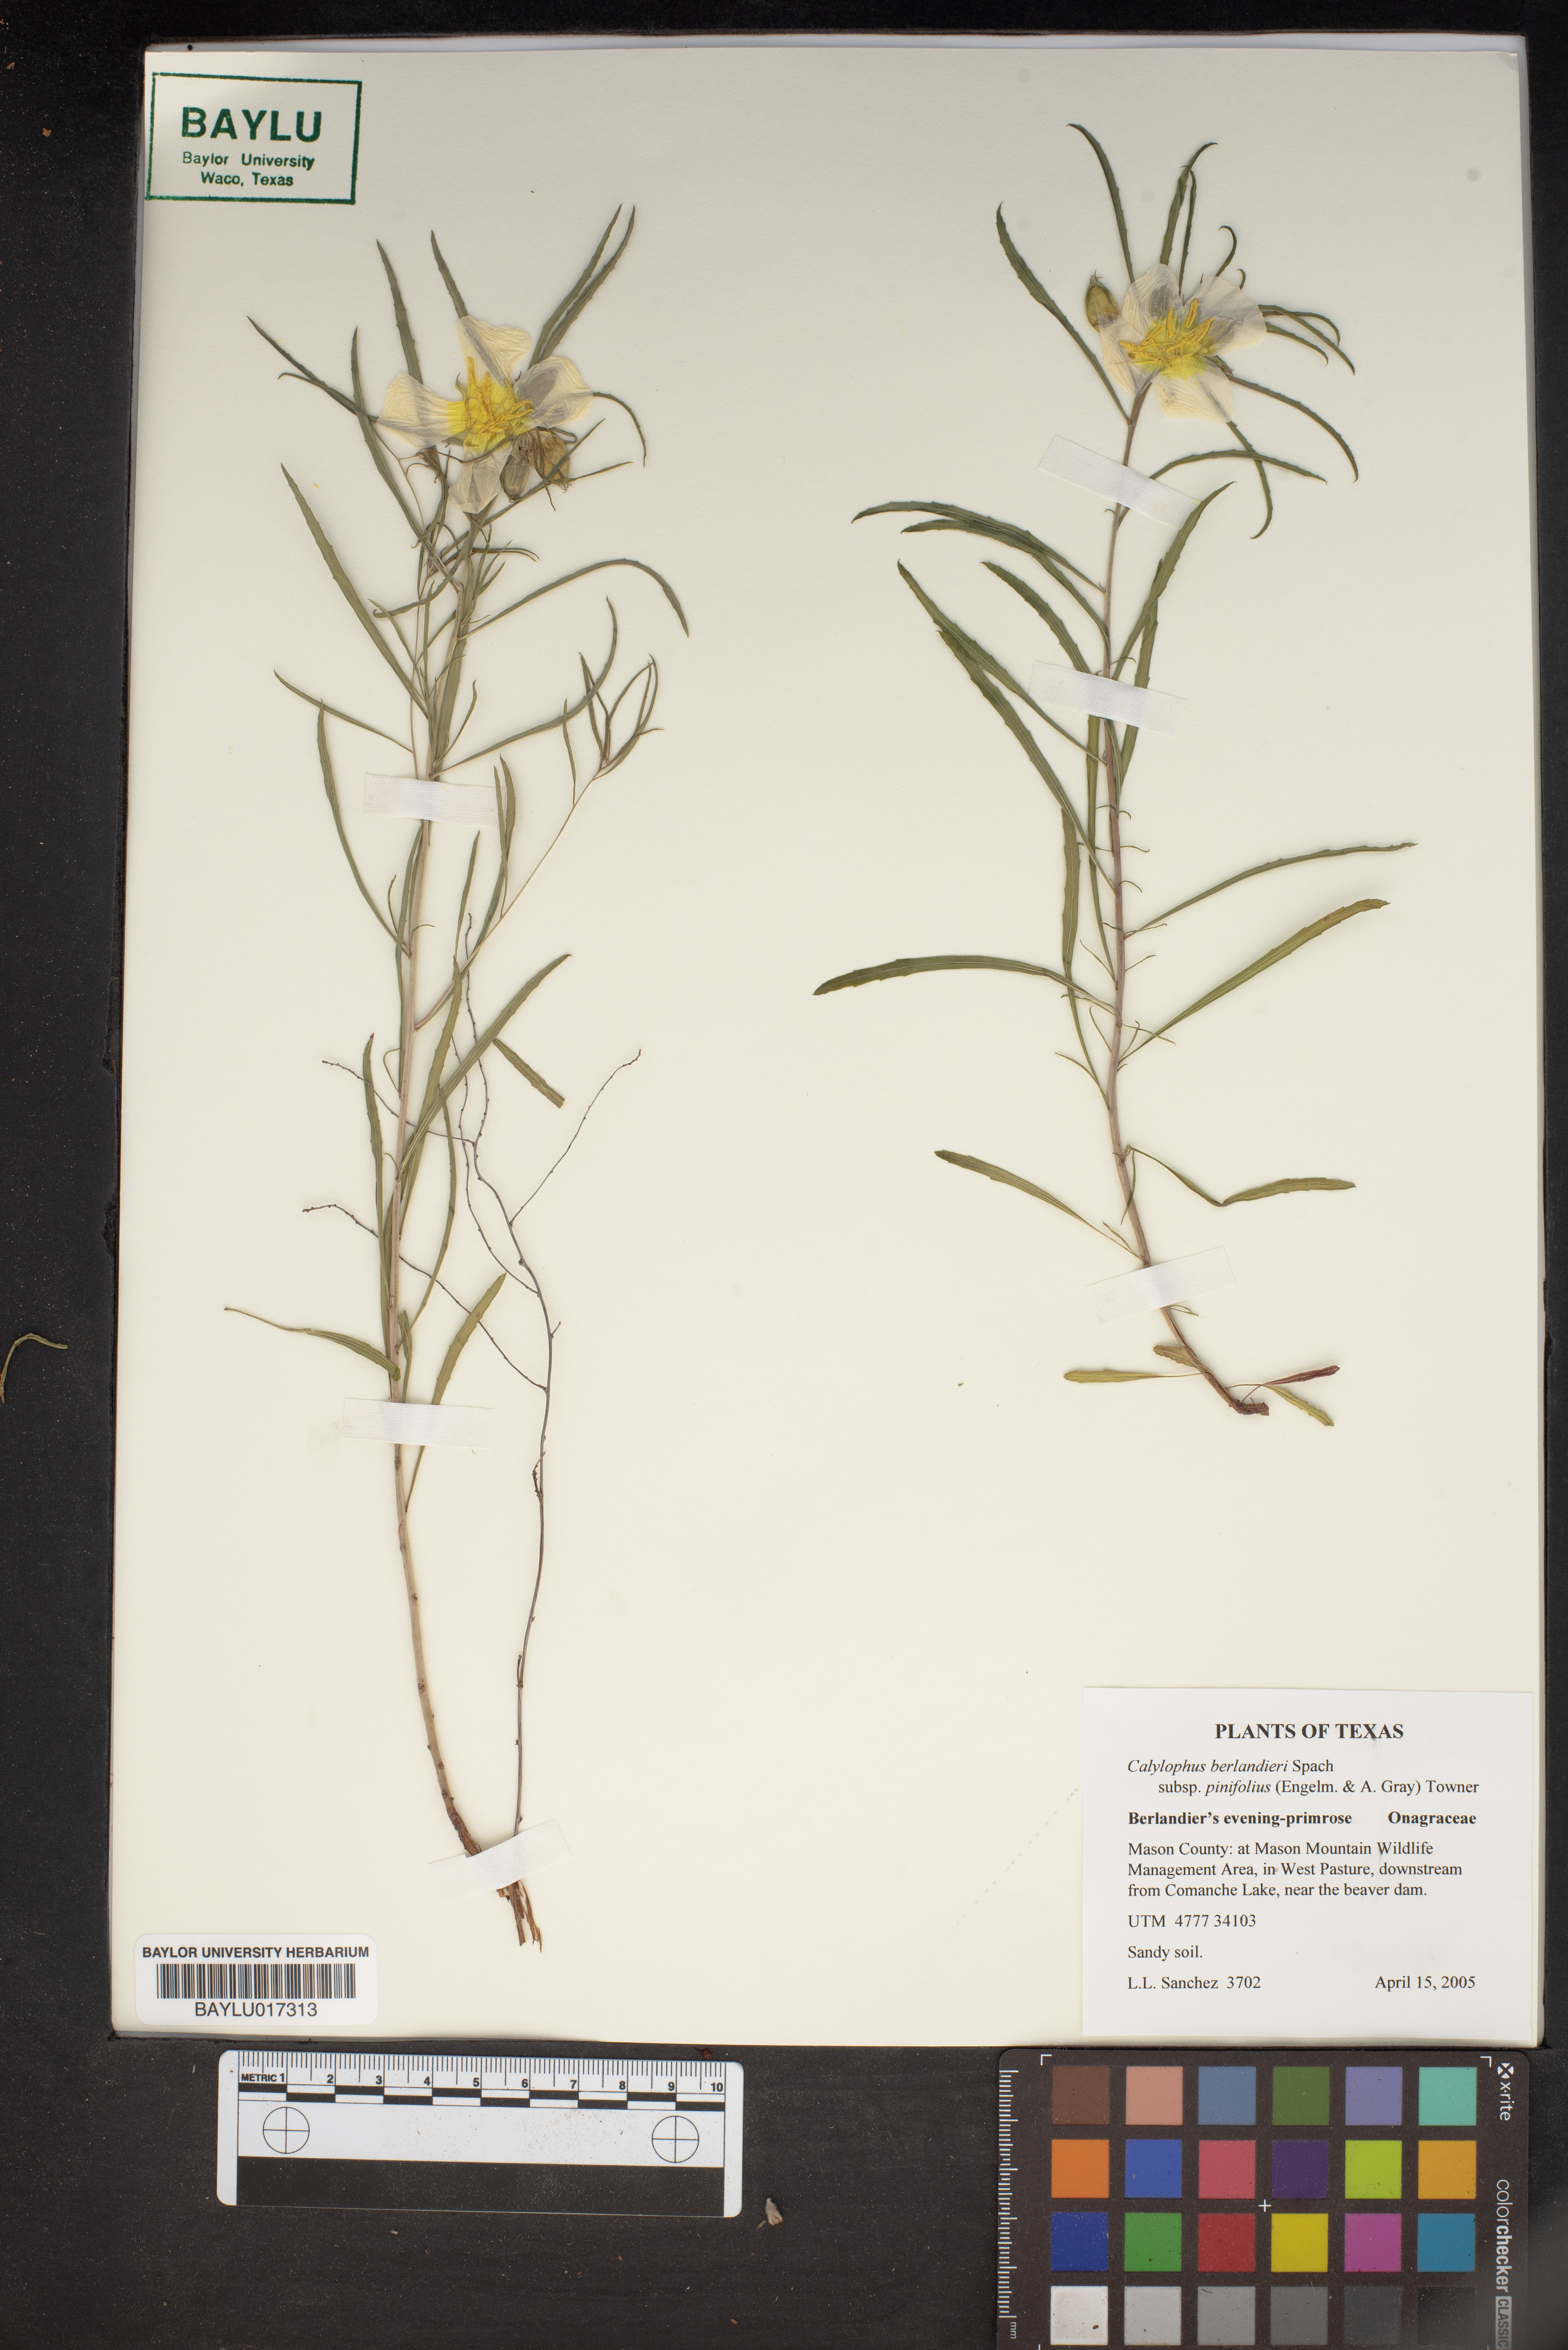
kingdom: Plantae
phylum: Tracheophyta
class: Magnoliopsida
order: Myrtales
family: Onagraceae
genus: Oenothera
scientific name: Oenothera capillifolia
